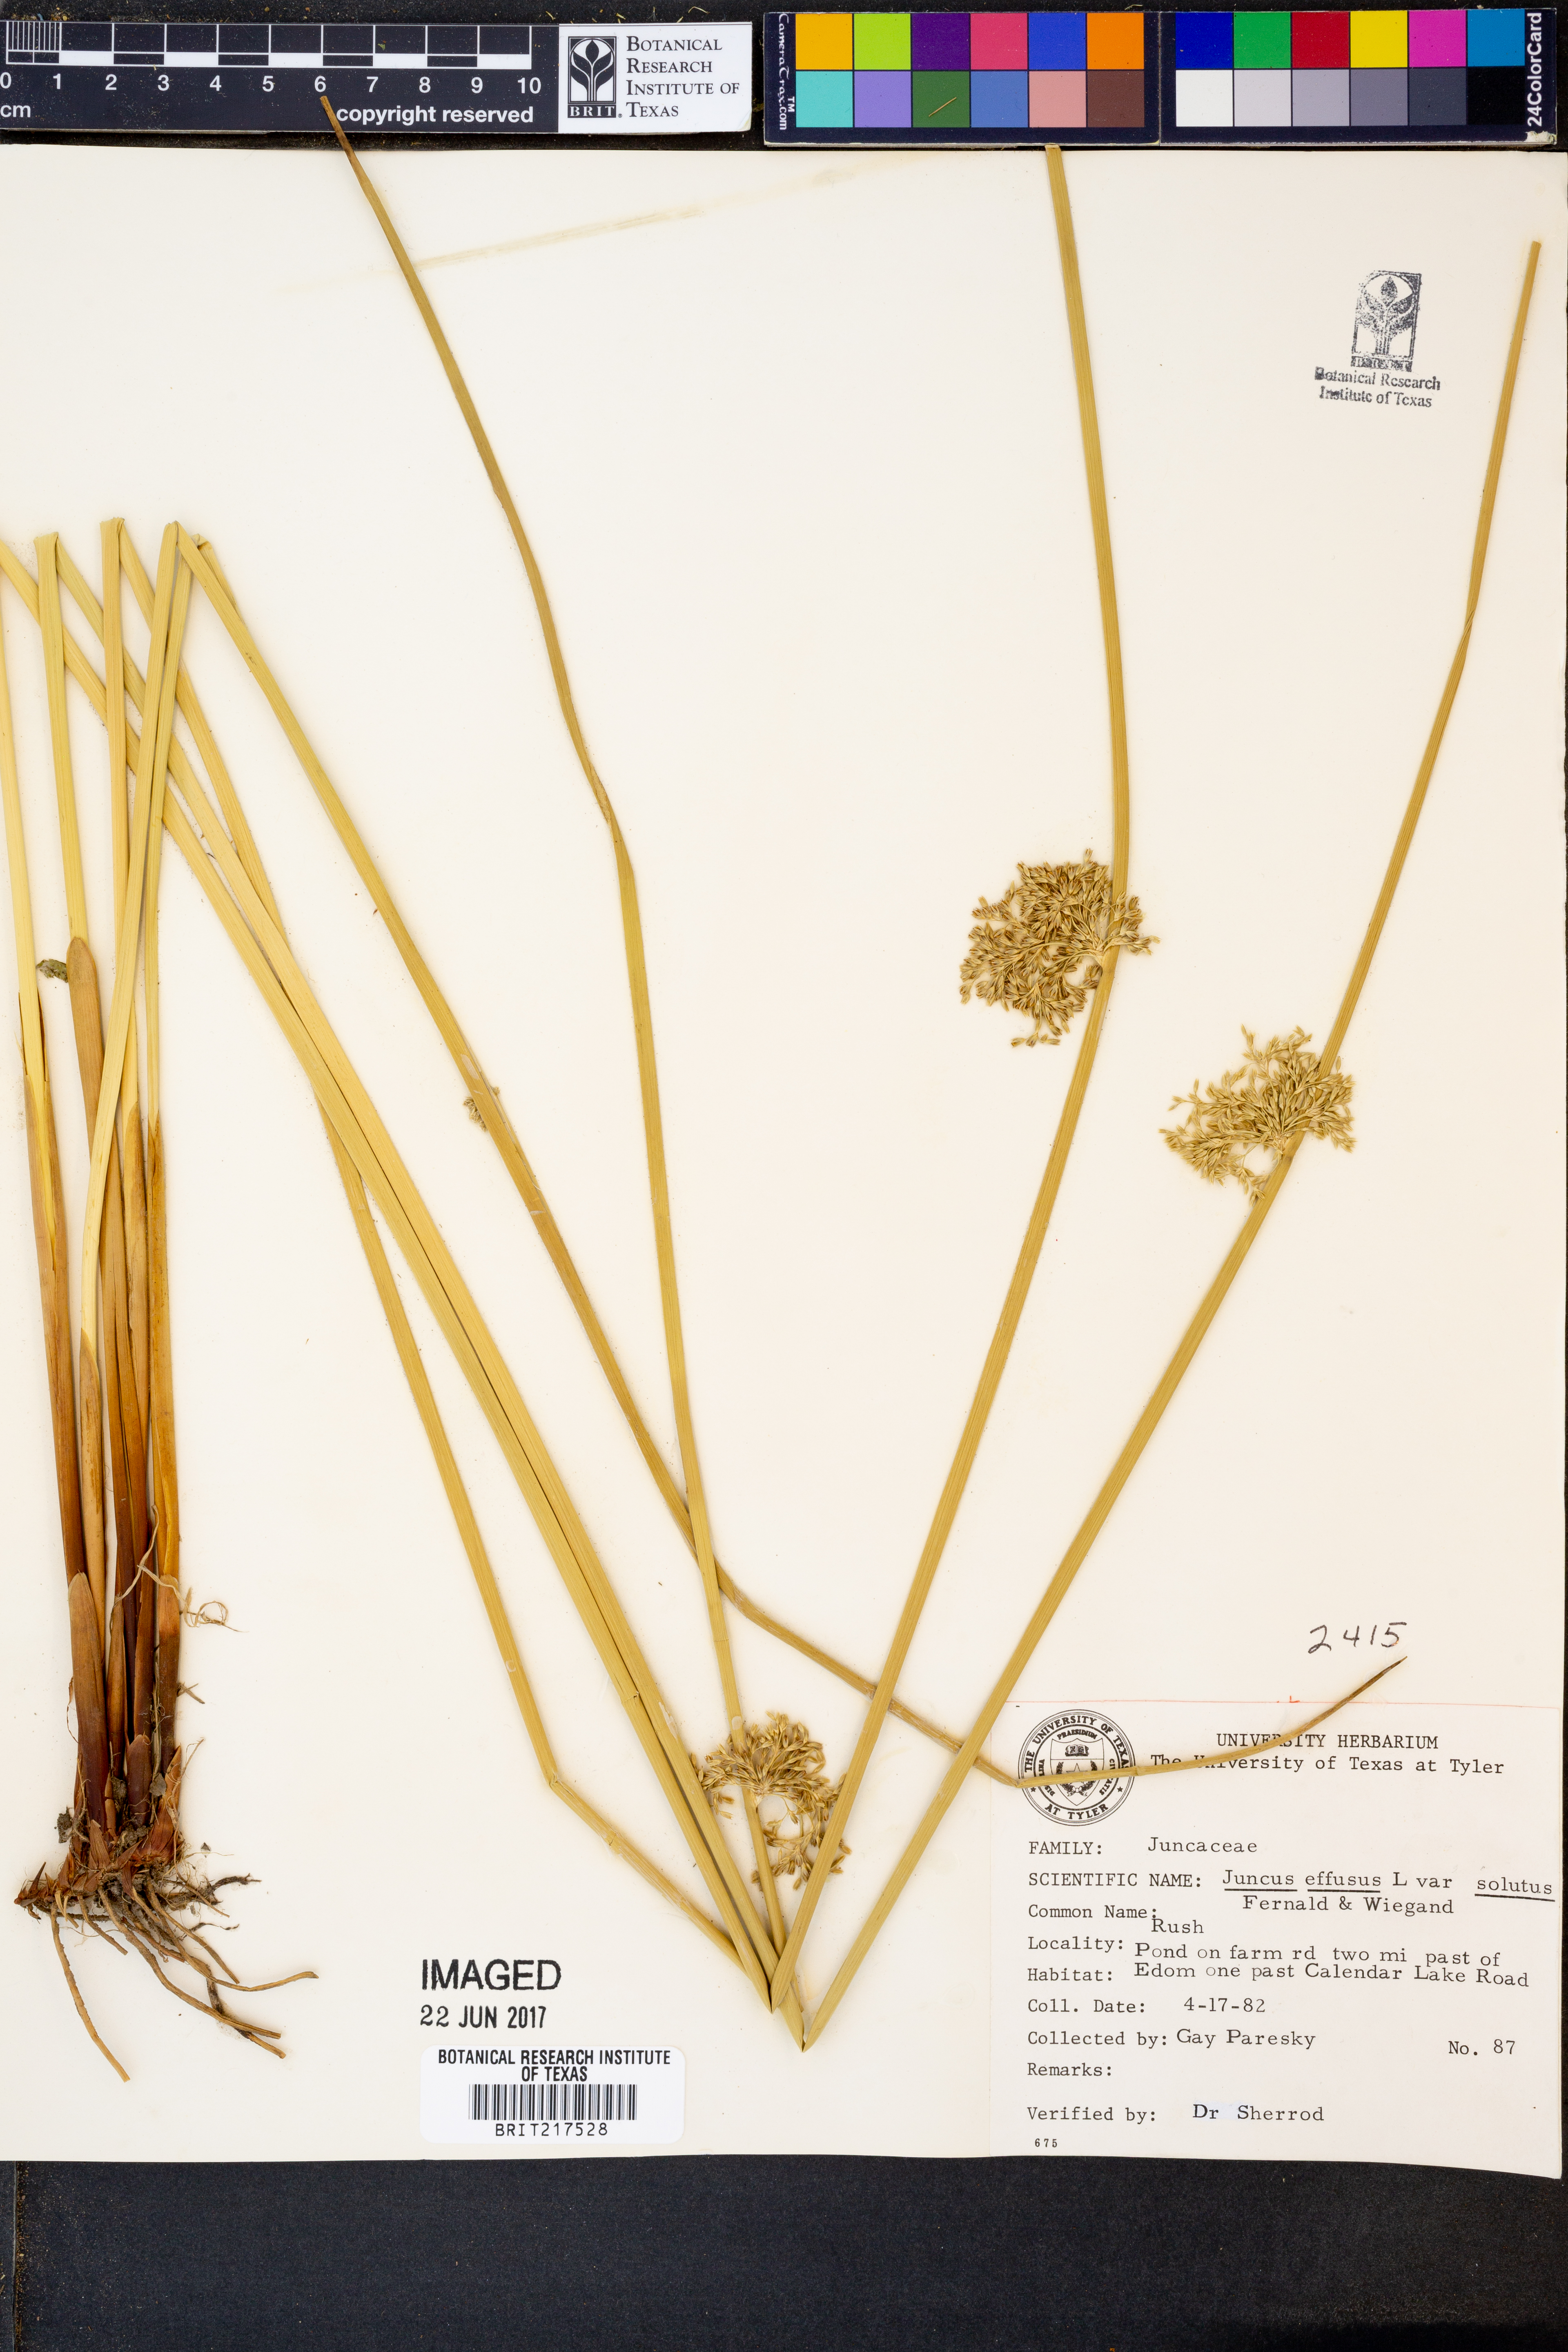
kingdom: Plantae
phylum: Tracheophyta
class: Liliopsida
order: Poales
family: Juncaceae
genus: Juncus
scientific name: Juncus effusus
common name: Soft rush
